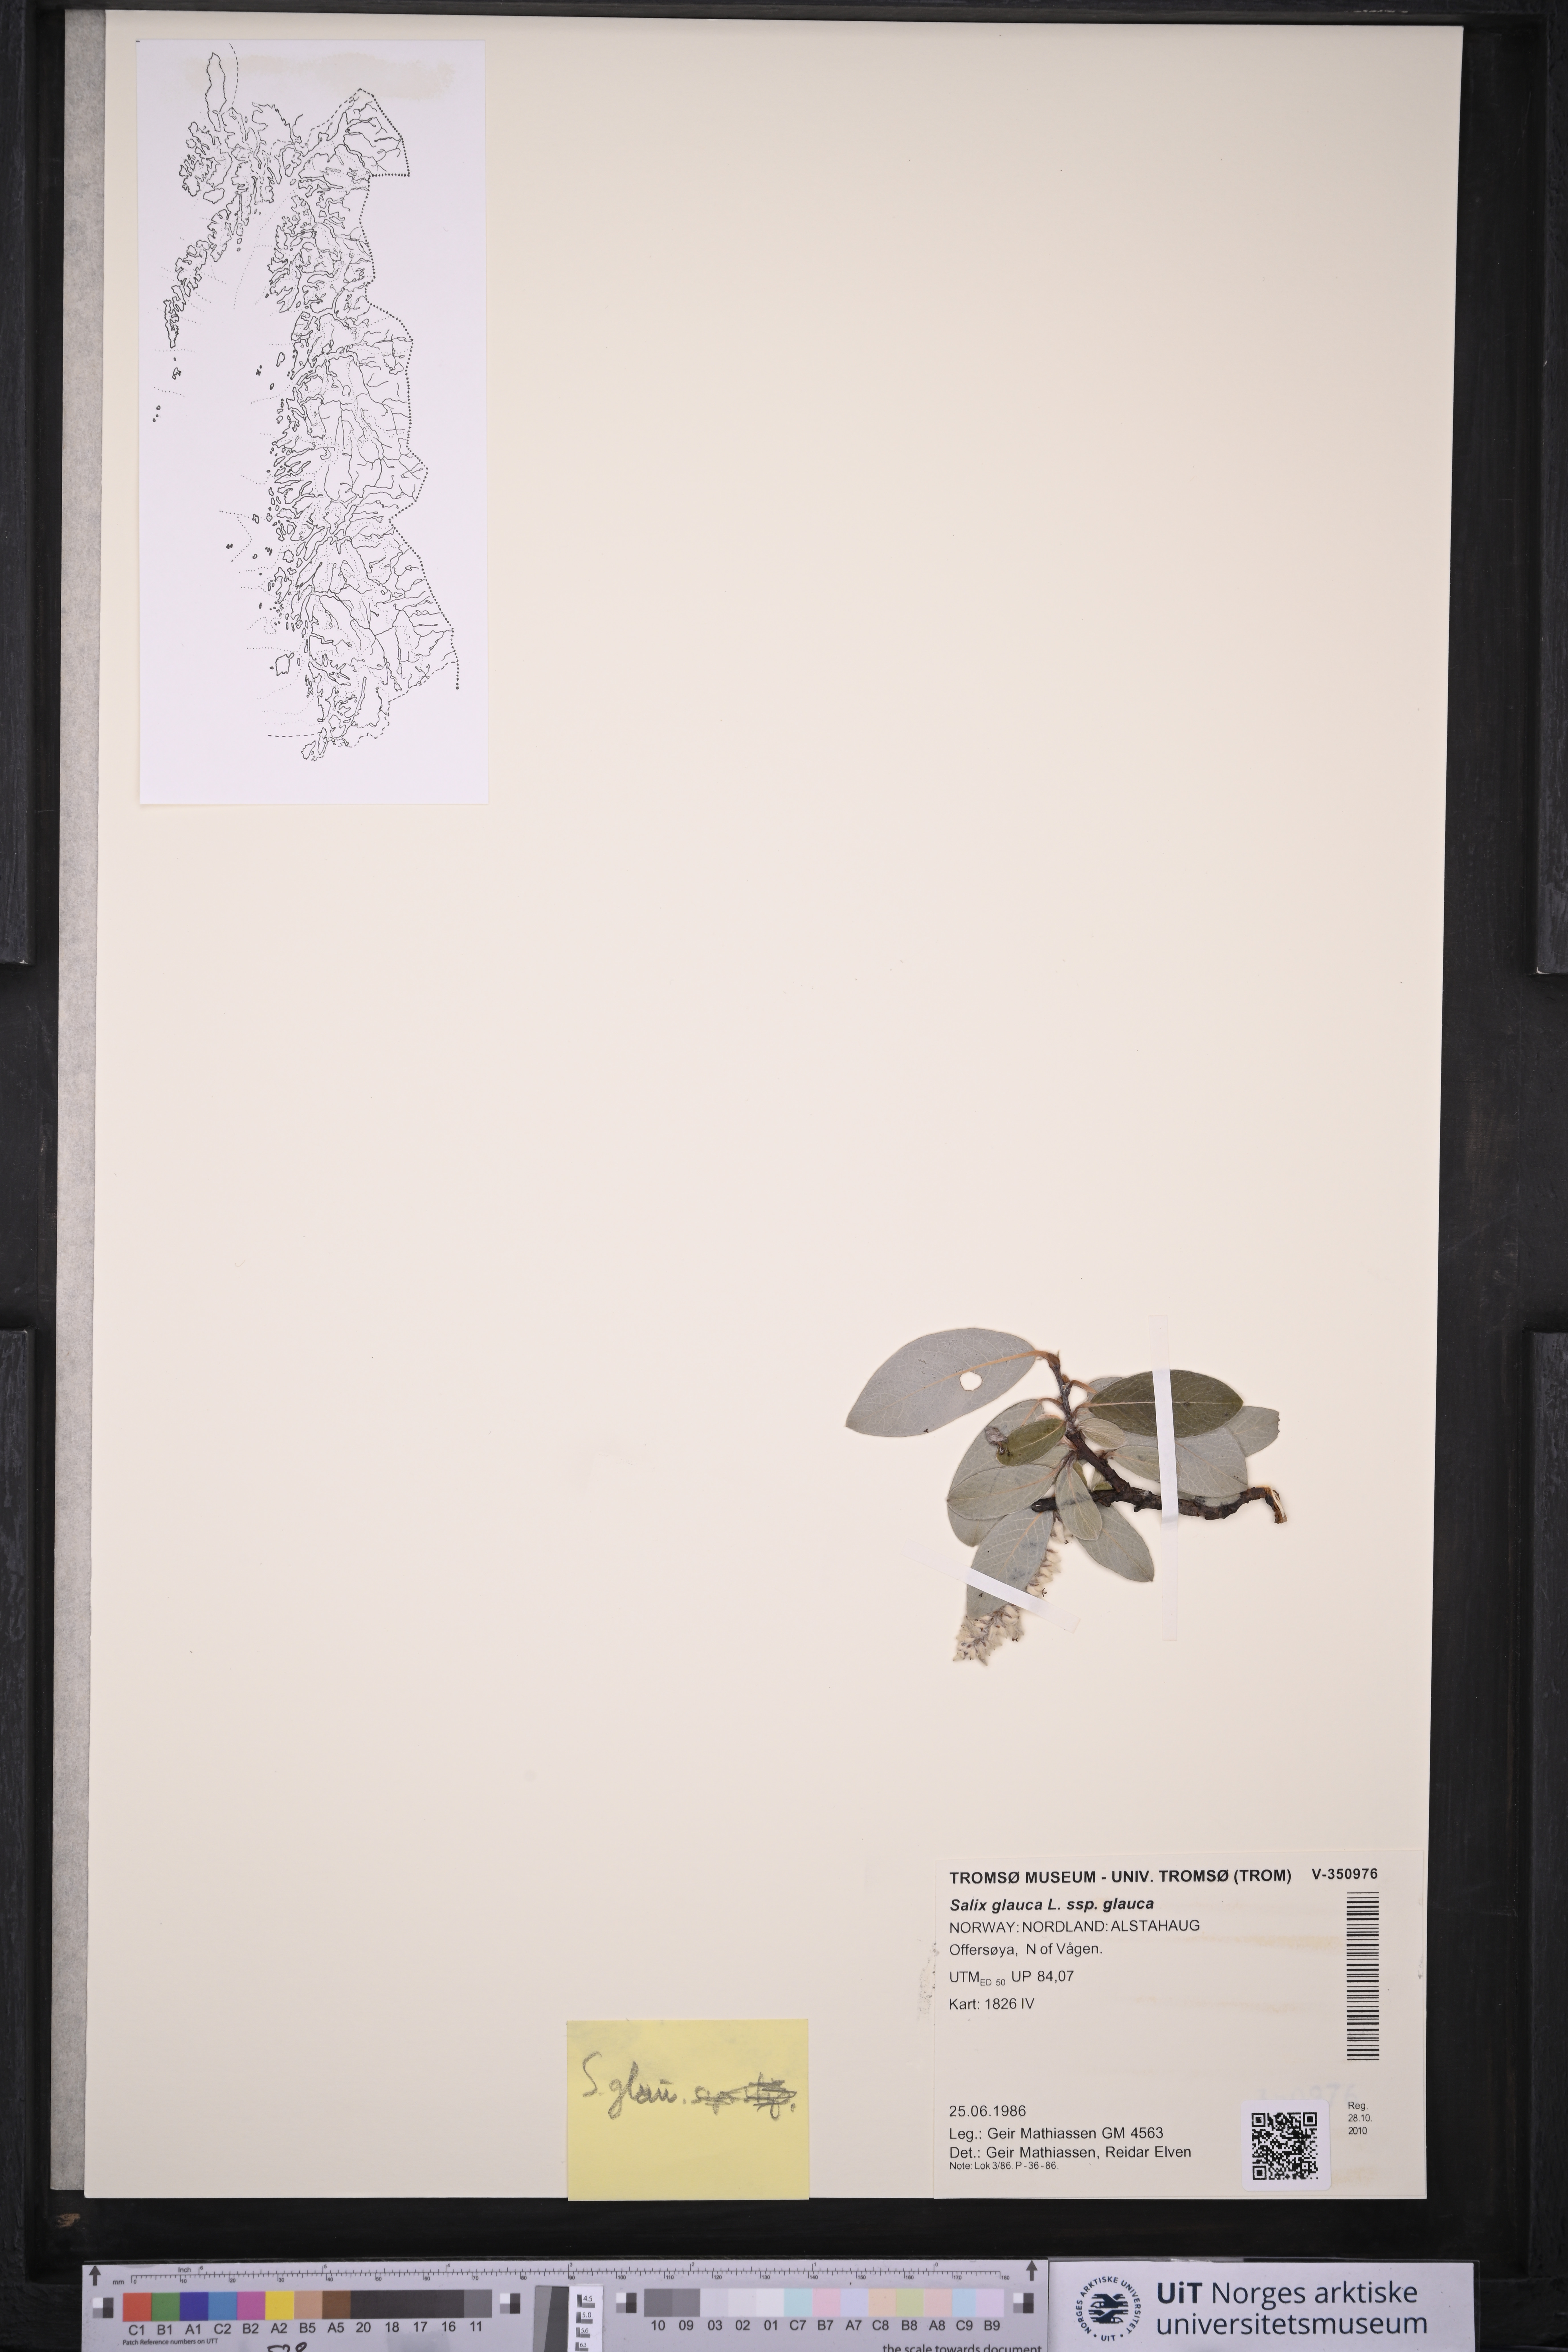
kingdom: Plantae
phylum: Tracheophyta
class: Magnoliopsida
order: Malpighiales
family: Salicaceae
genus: Salix
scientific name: Salix glauca
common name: Glaucous willow
